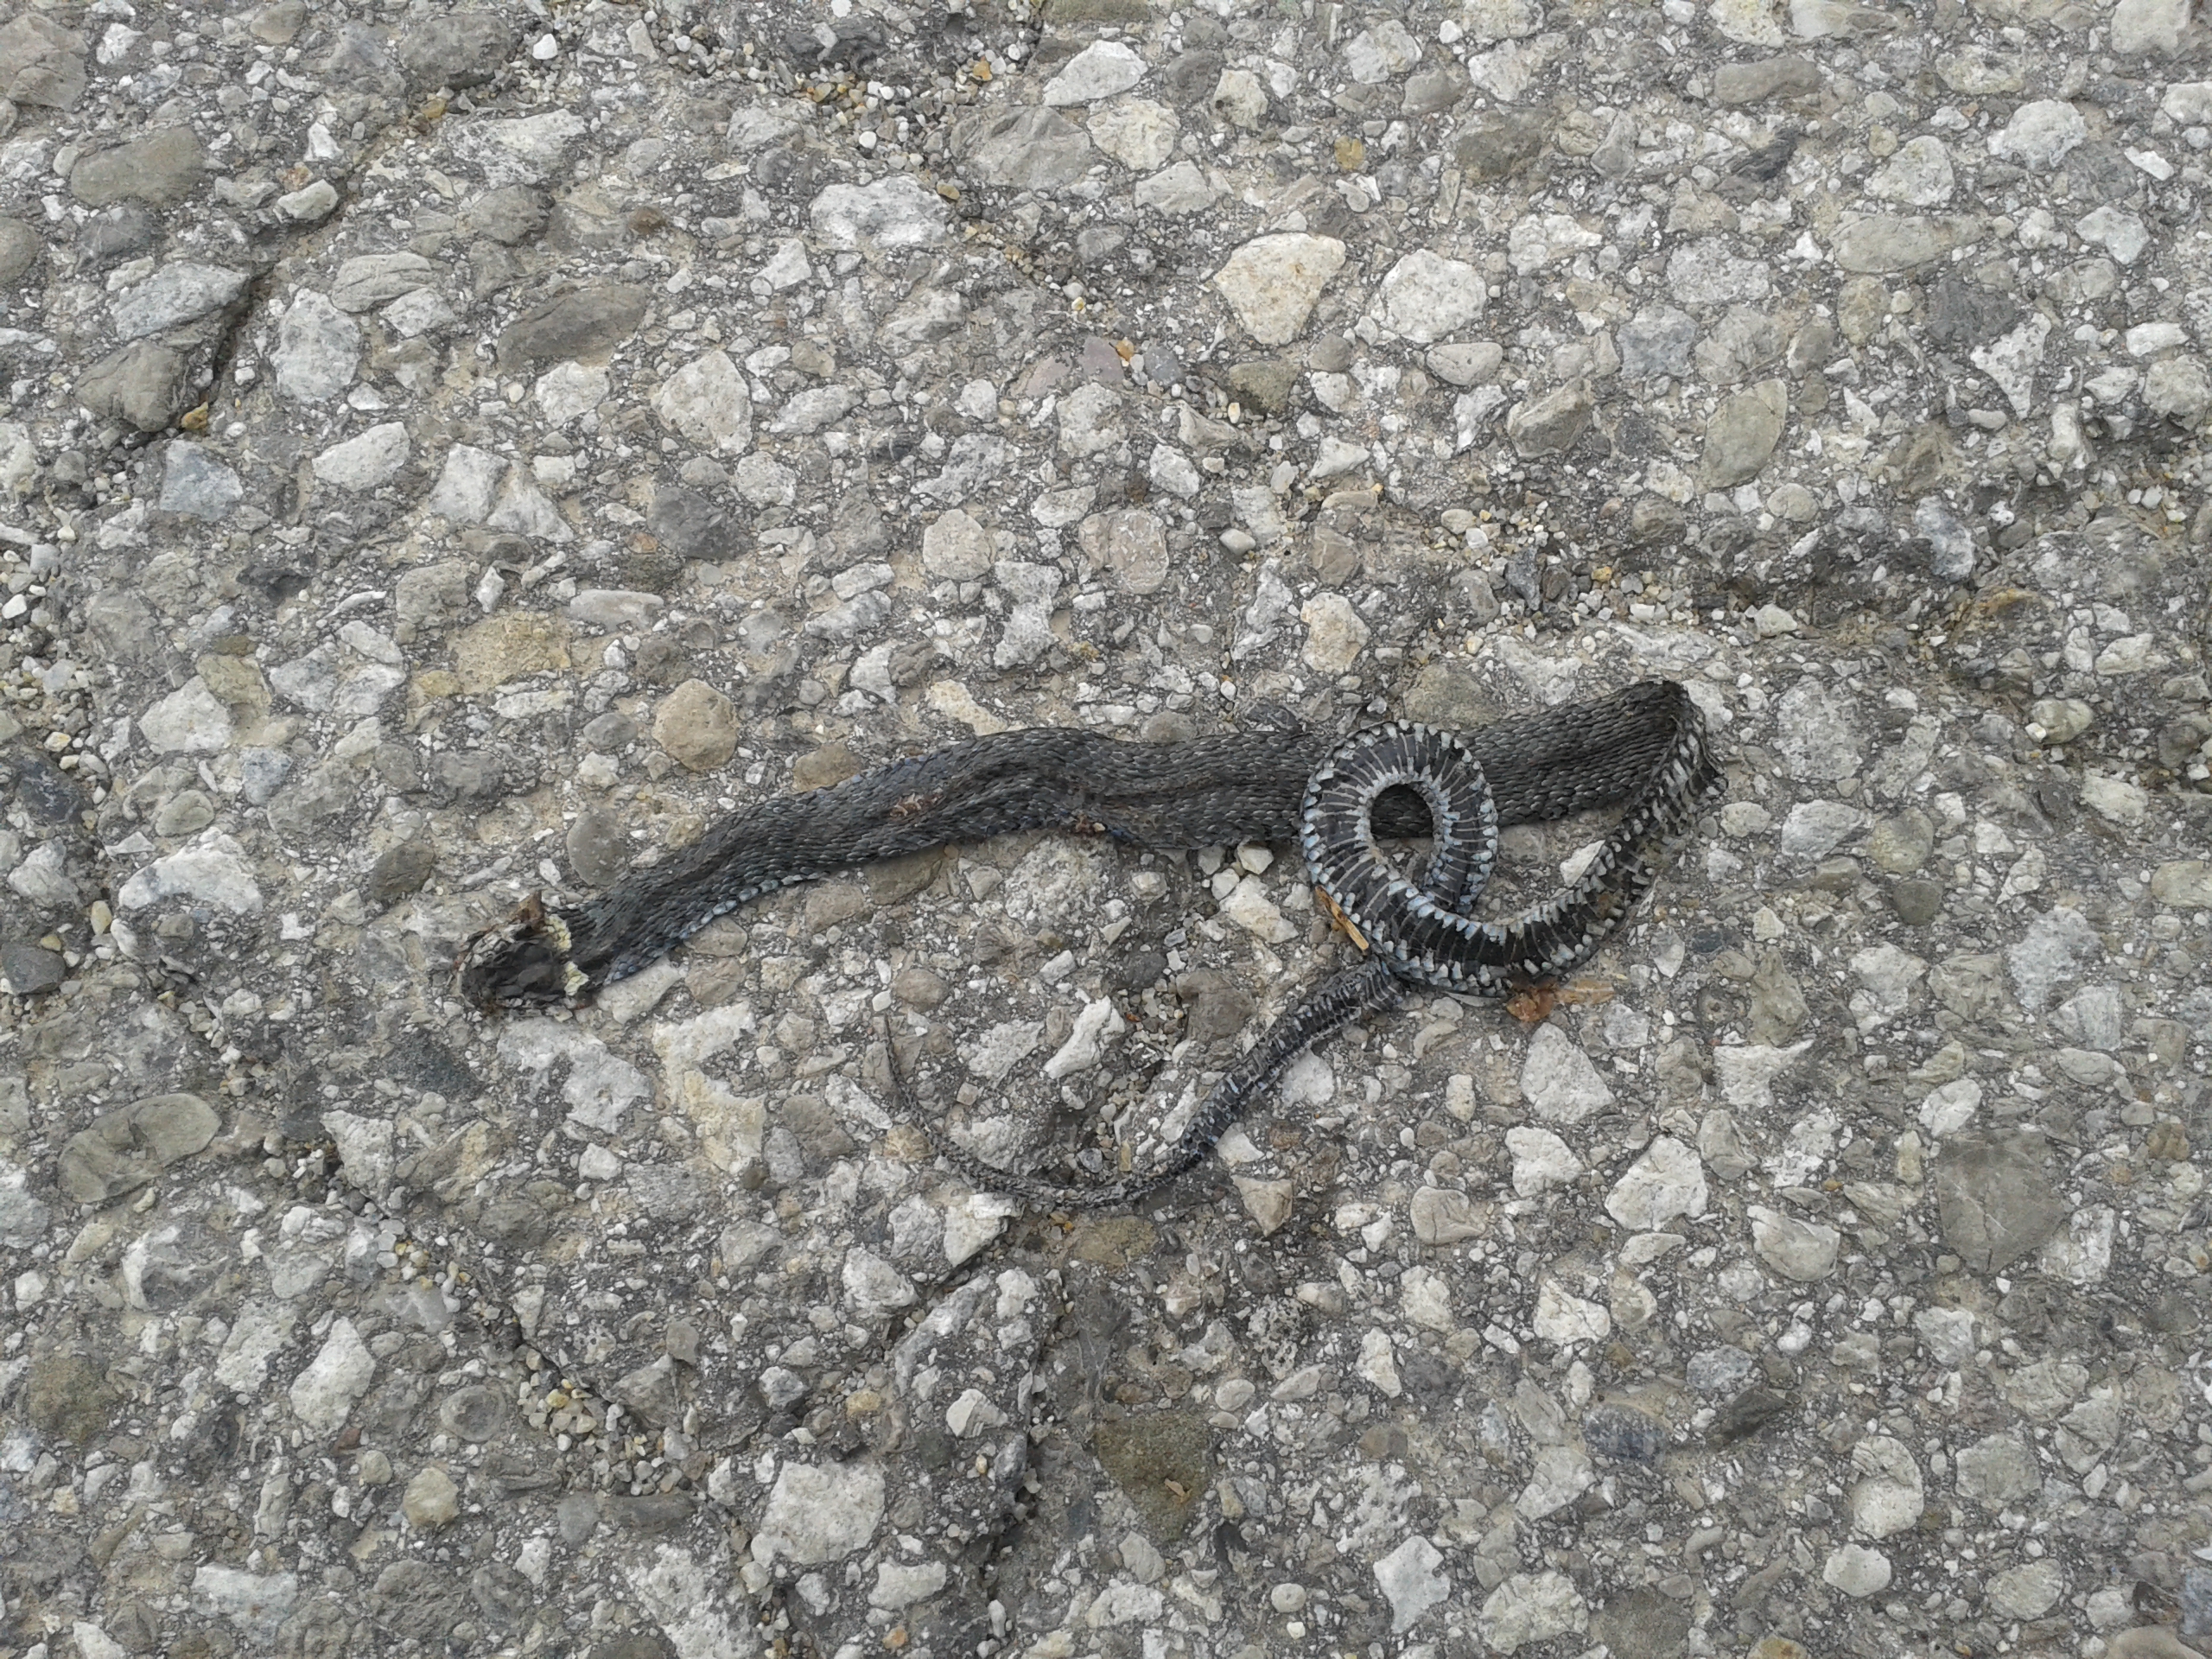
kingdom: Animalia
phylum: Chordata
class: Squamata
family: Colubridae
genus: Natrix
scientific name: Natrix natrix
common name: Grass snake
